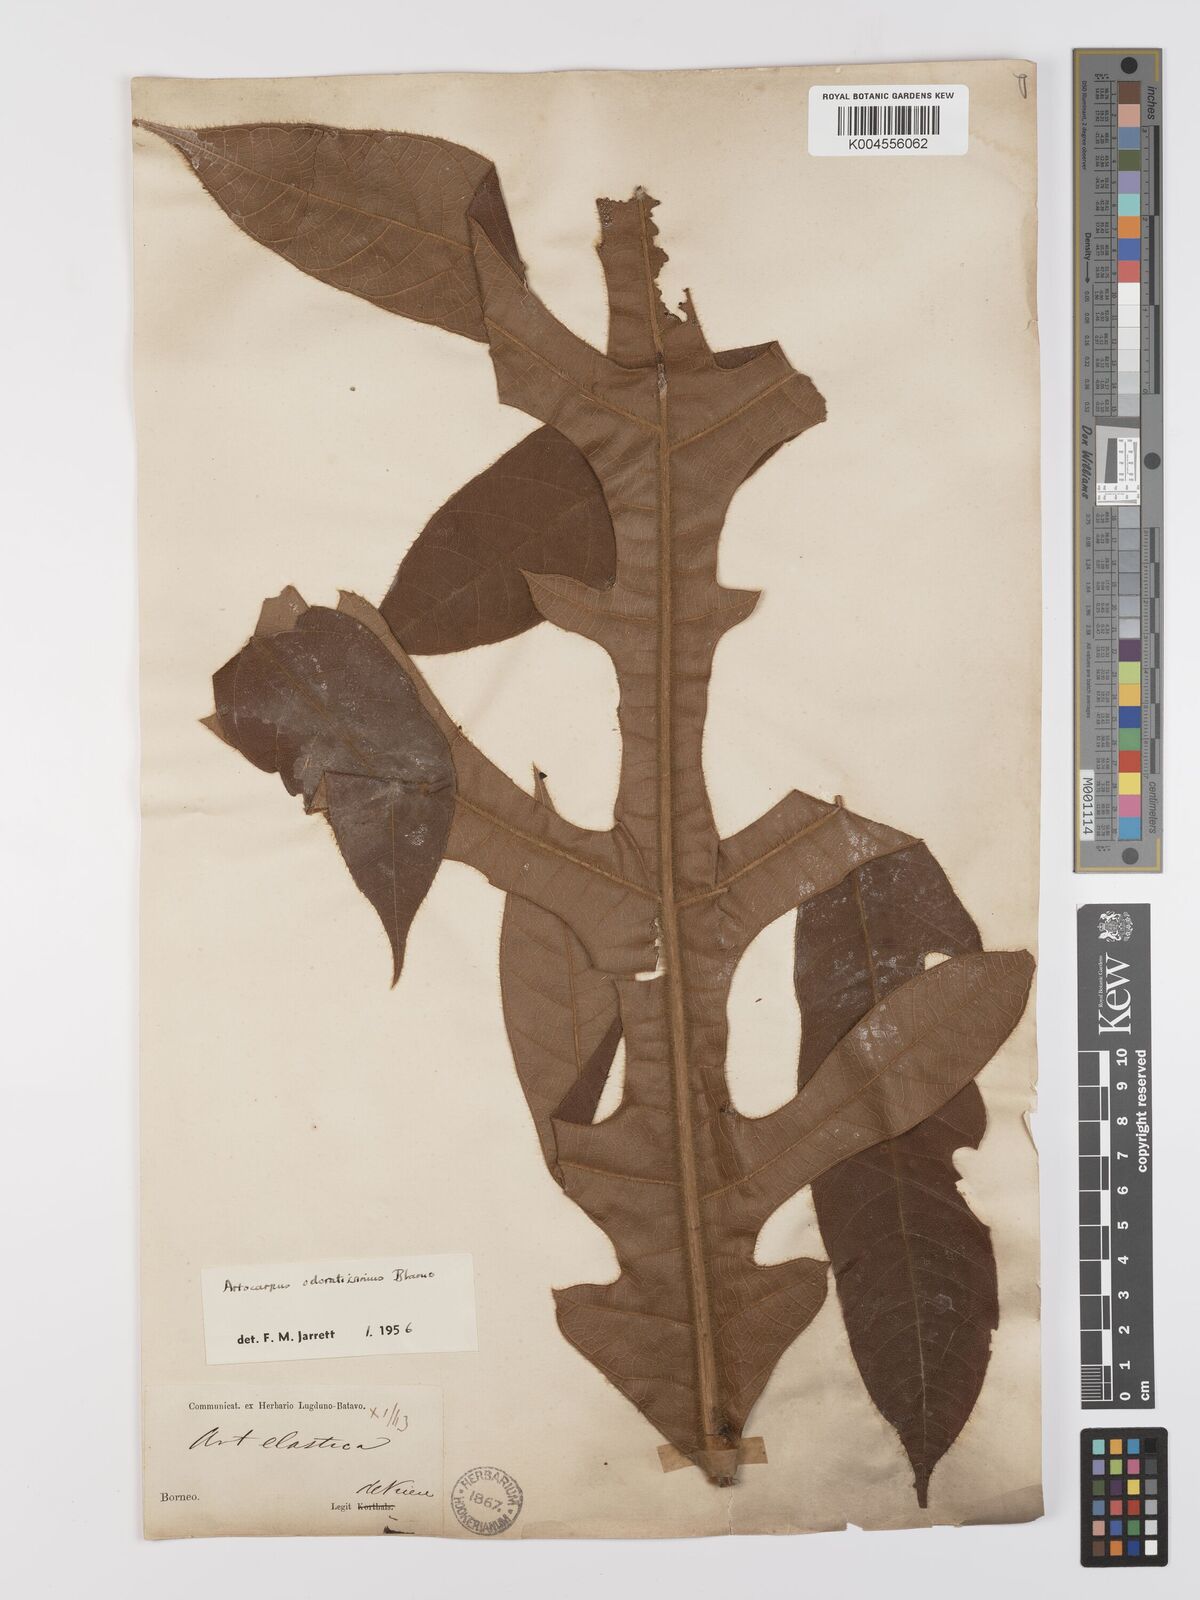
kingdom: Plantae
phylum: Tracheophyta
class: Magnoliopsida
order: Rosales
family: Moraceae
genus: Artocarpus
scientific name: Artocarpus odoratissimus
